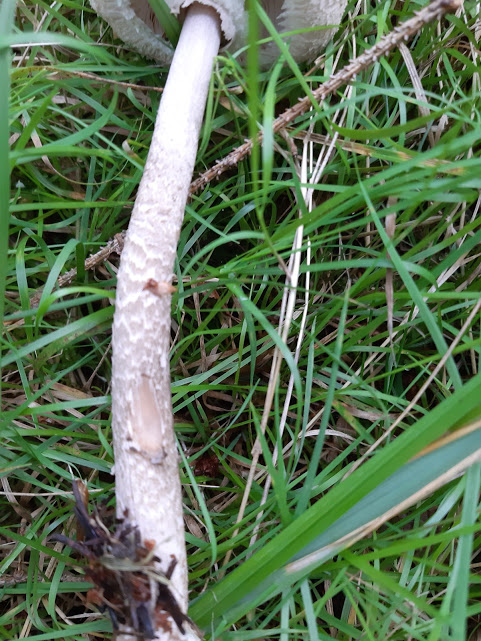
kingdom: Fungi
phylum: Basidiomycota
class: Agaricomycetes
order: Agaricales
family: Agaricaceae
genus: Macrolepiota
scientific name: Macrolepiota mastoidea
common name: puklet kæmpeparasolhat
